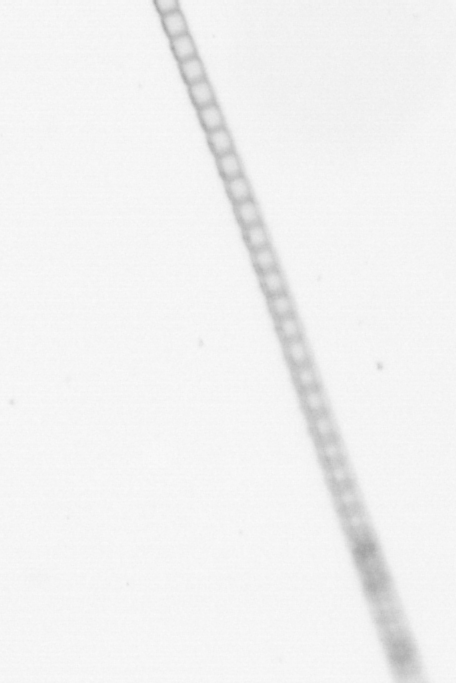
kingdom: Chromista
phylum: Ochrophyta
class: Bacillariophyceae
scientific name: Bacillariophyceae
